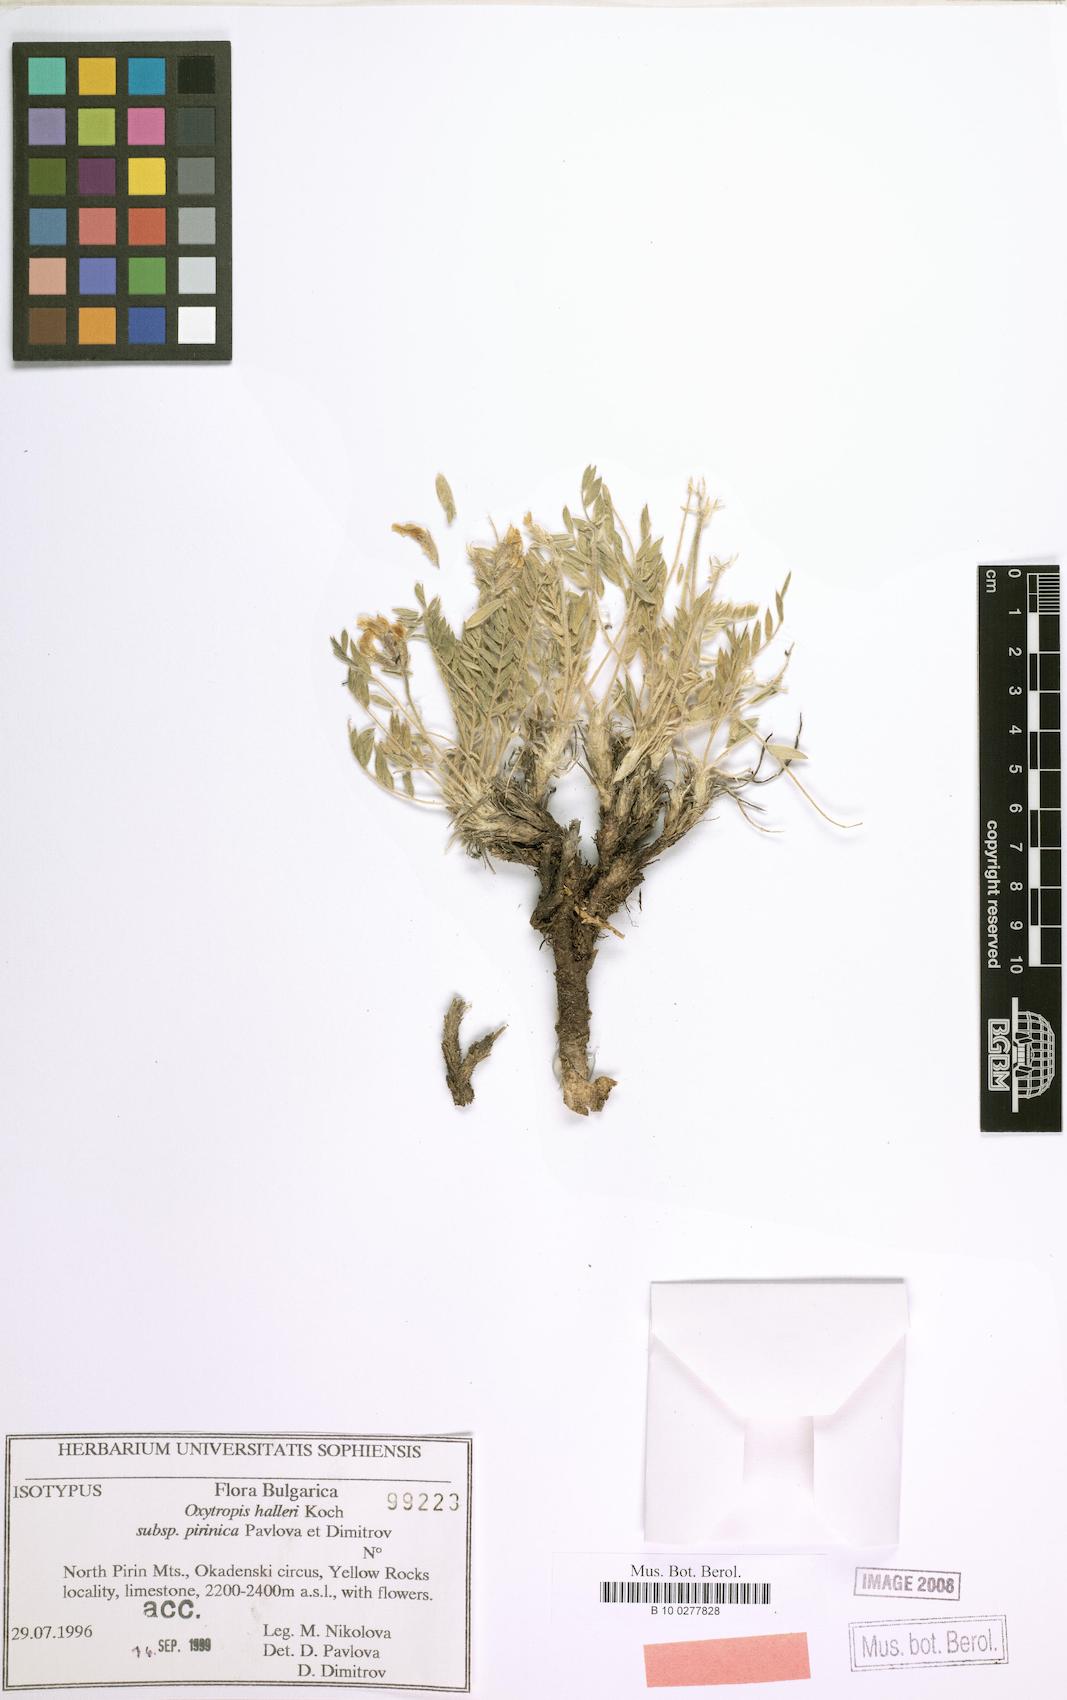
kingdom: Plantae
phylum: Tracheophyta
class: Magnoliopsida
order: Fabales
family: Fabaceae
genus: Oxytropis
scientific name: Oxytropis halleri
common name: Purple oxytropis
